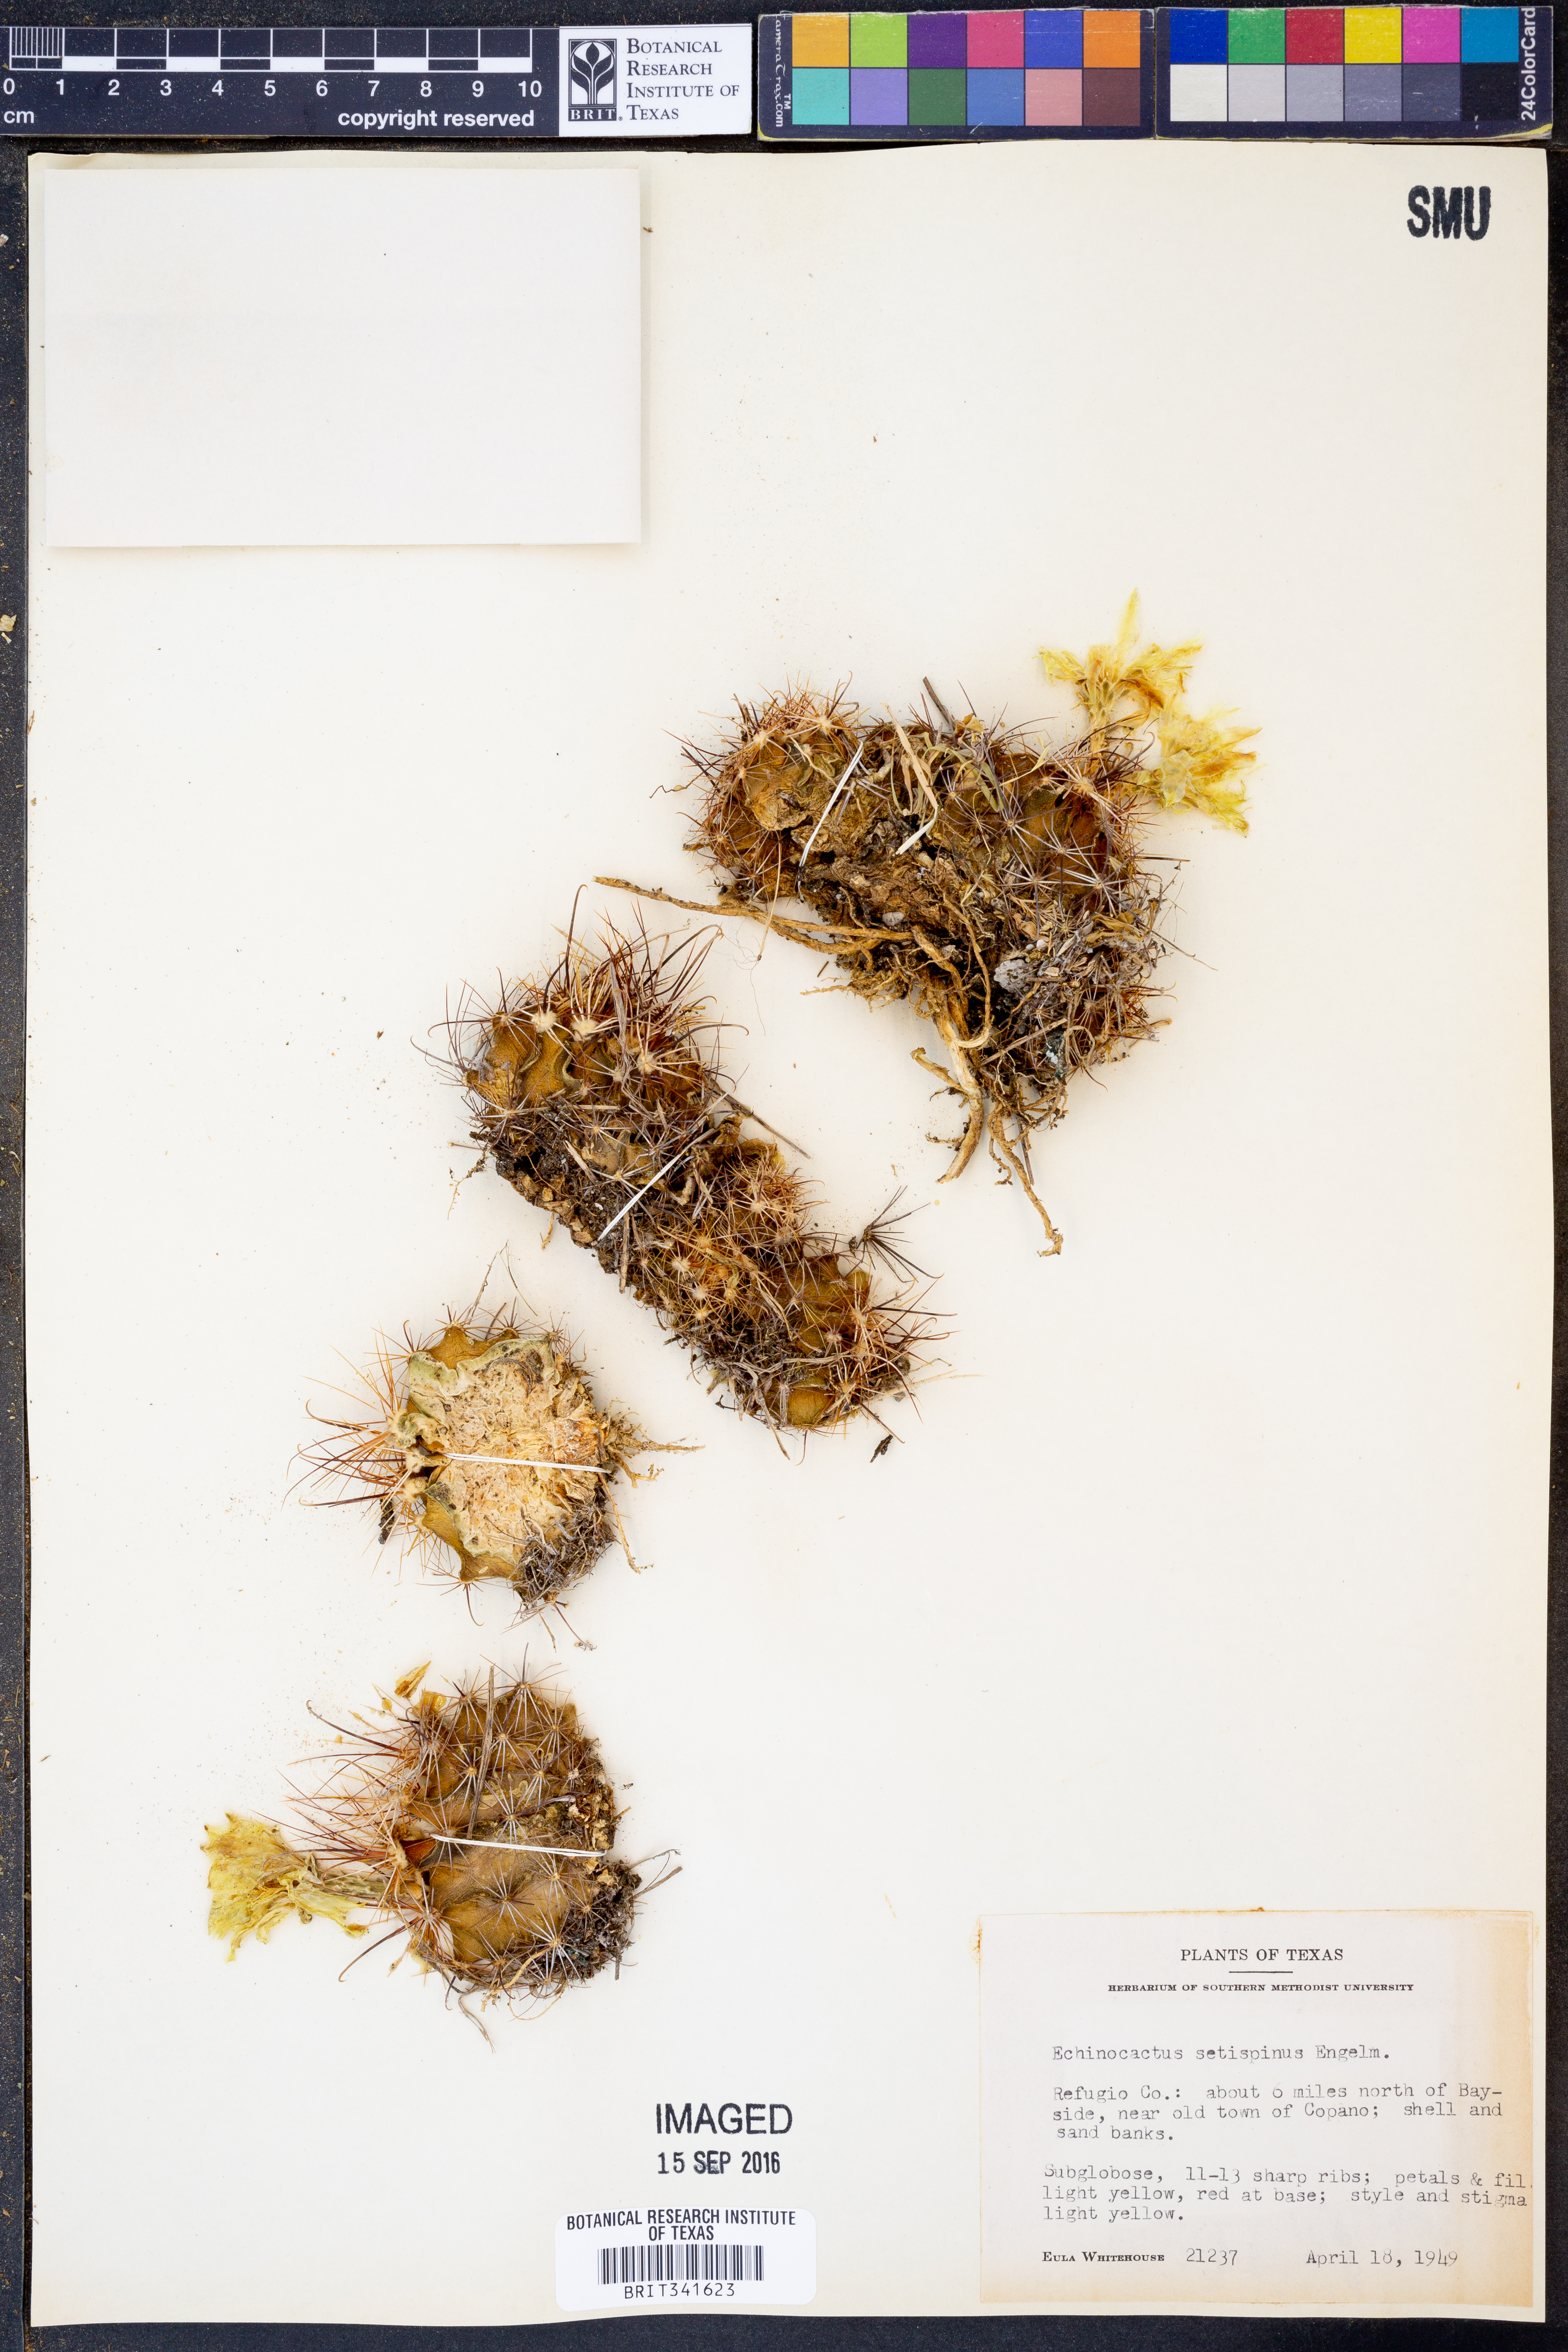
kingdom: Plantae
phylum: Tracheophyta
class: Magnoliopsida
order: Caryophyllales
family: Cactaceae
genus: Thelocactus
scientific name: Thelocactus setispinus
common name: Miniature barrel cactus
